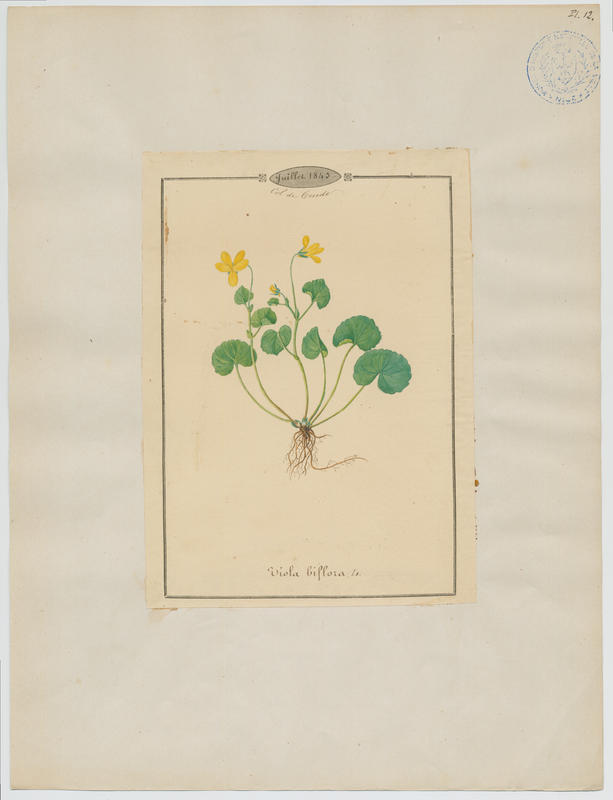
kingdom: Plantae
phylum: Tracheophyta
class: Magnoliopsida
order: Malpighiales
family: Violaceae
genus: Viola
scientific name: Viola biflora
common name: Alpine yellow violet
